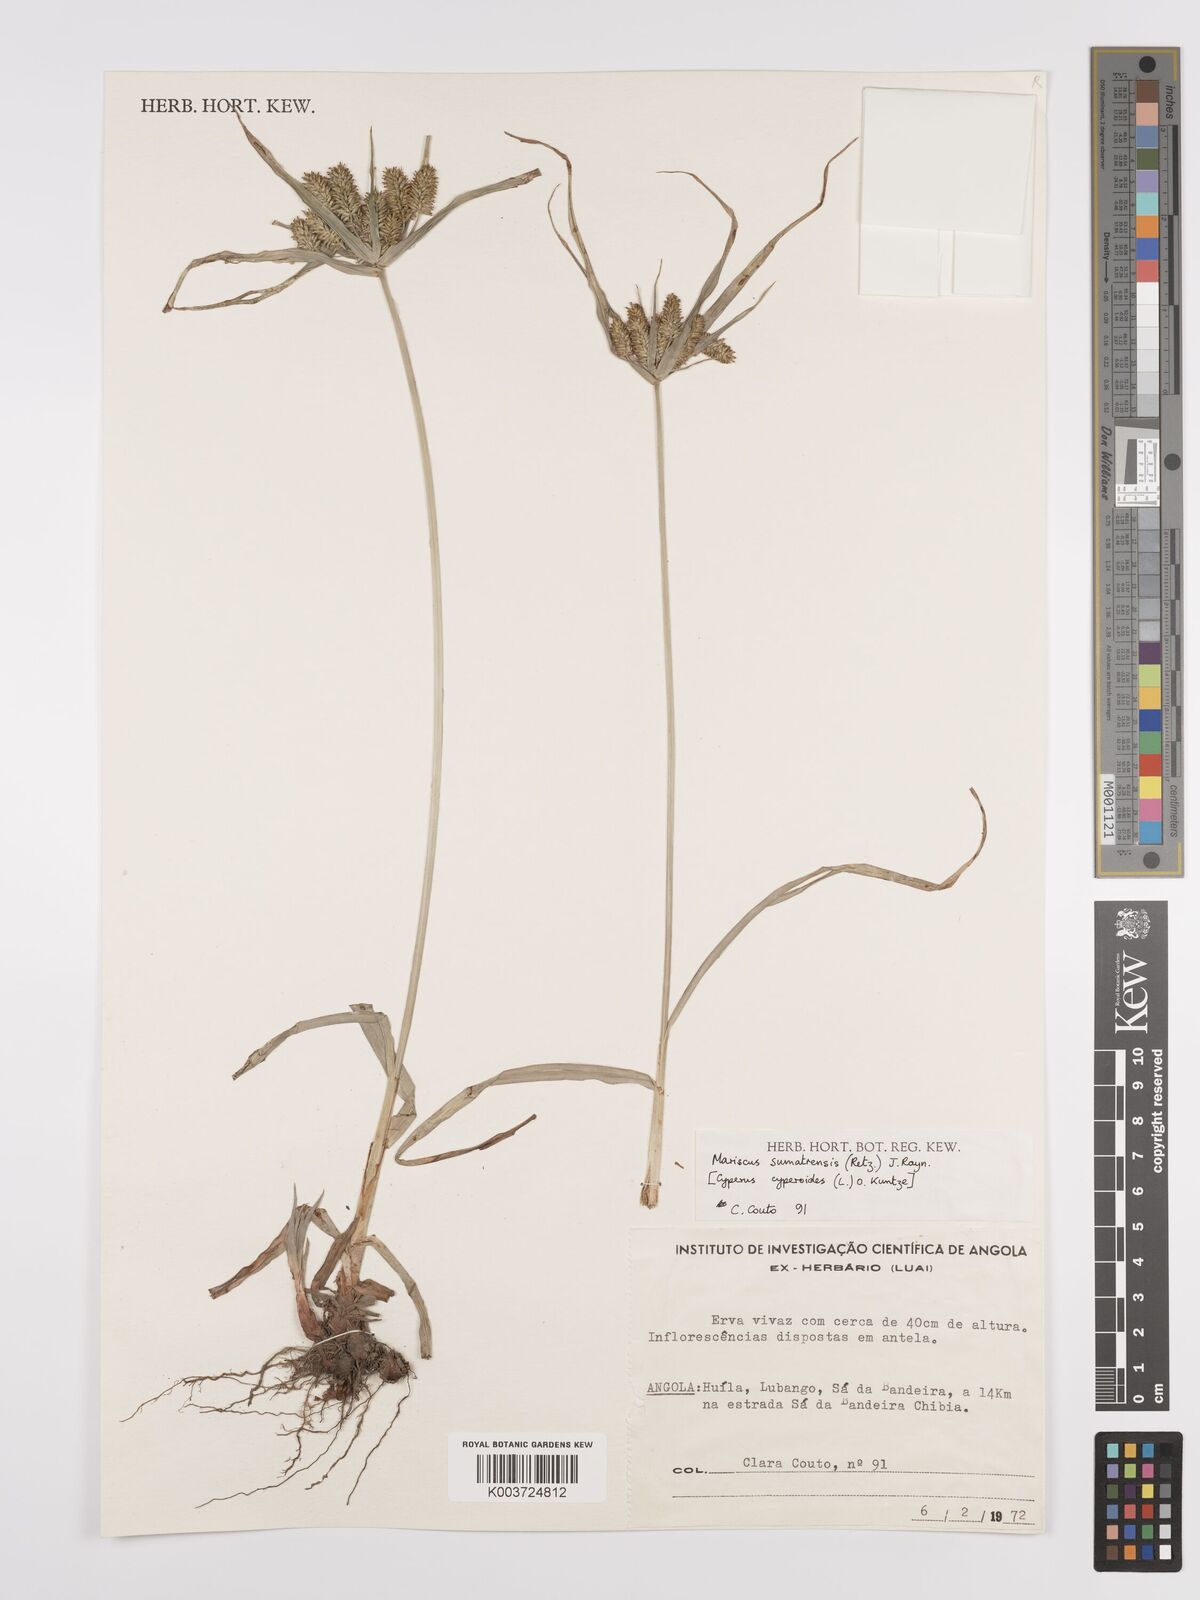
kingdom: Plantae
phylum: Tracheophyta
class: Liliopsida
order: Poales
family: Cyperaceae
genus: Cyperus
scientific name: Cyperus cyperoides
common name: Pacific island flat sedge
